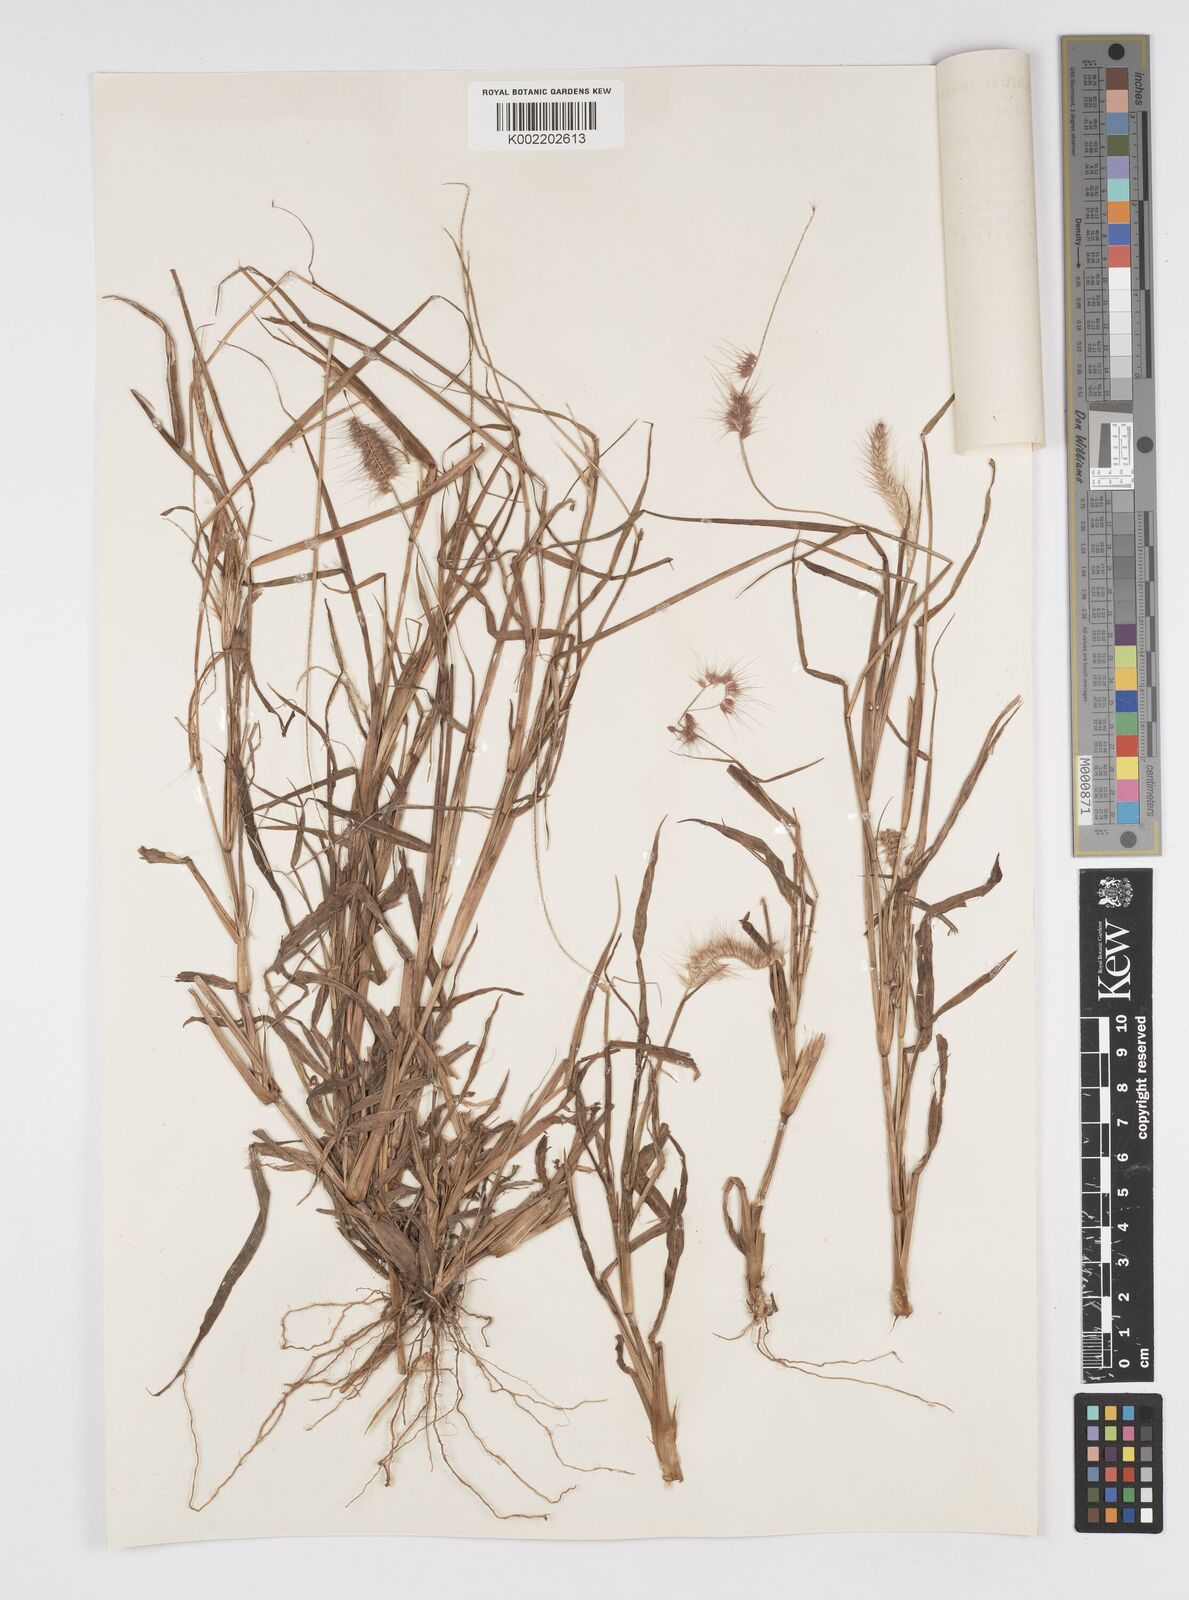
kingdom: Plantae
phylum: Tracheophyta
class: Liliopsida
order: Poales
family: Poaceae
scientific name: Poaceae
